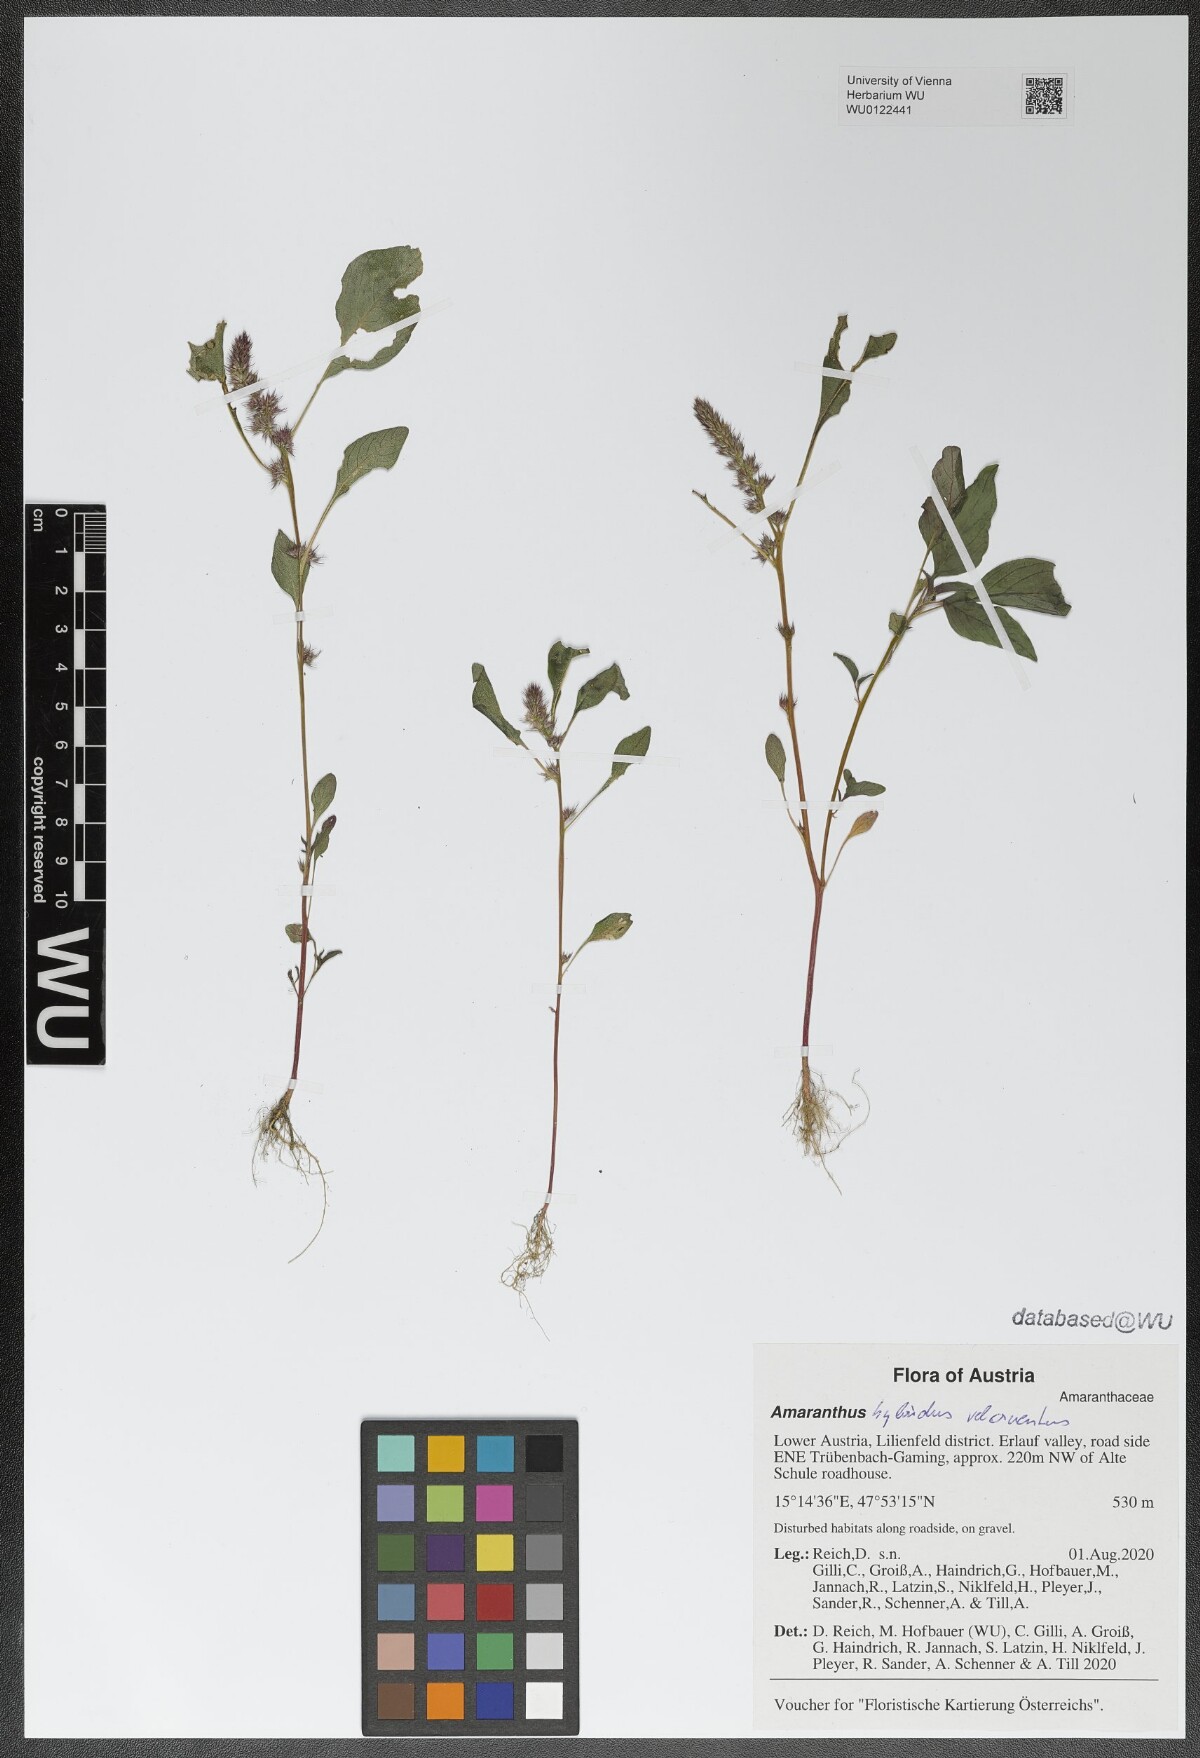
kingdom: Plantae
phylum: Tracheophyta
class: Magnoliopsida
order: Caryophyllales
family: Amaranthaceae
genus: Amaranthus
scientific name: Amaranthus
